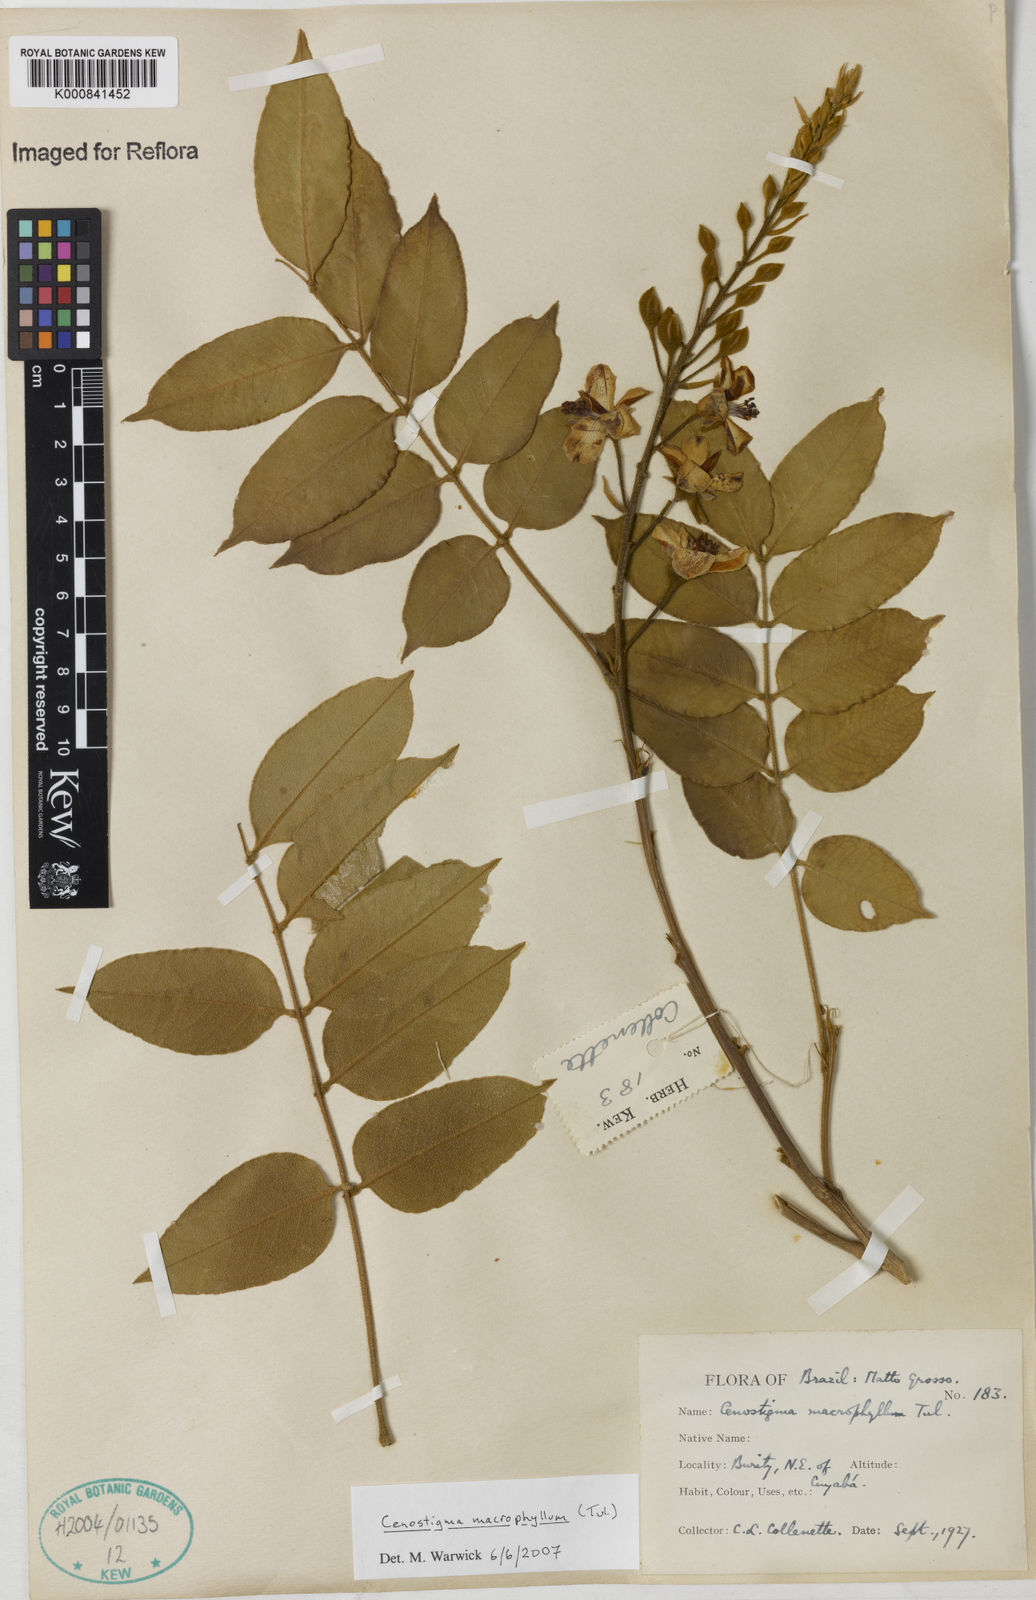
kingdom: Plantae
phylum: Tracheophyta
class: Magnoliopsida
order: Fabales
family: Fabaceae
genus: Cenostigma
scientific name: Cenostigma macrophyllum
